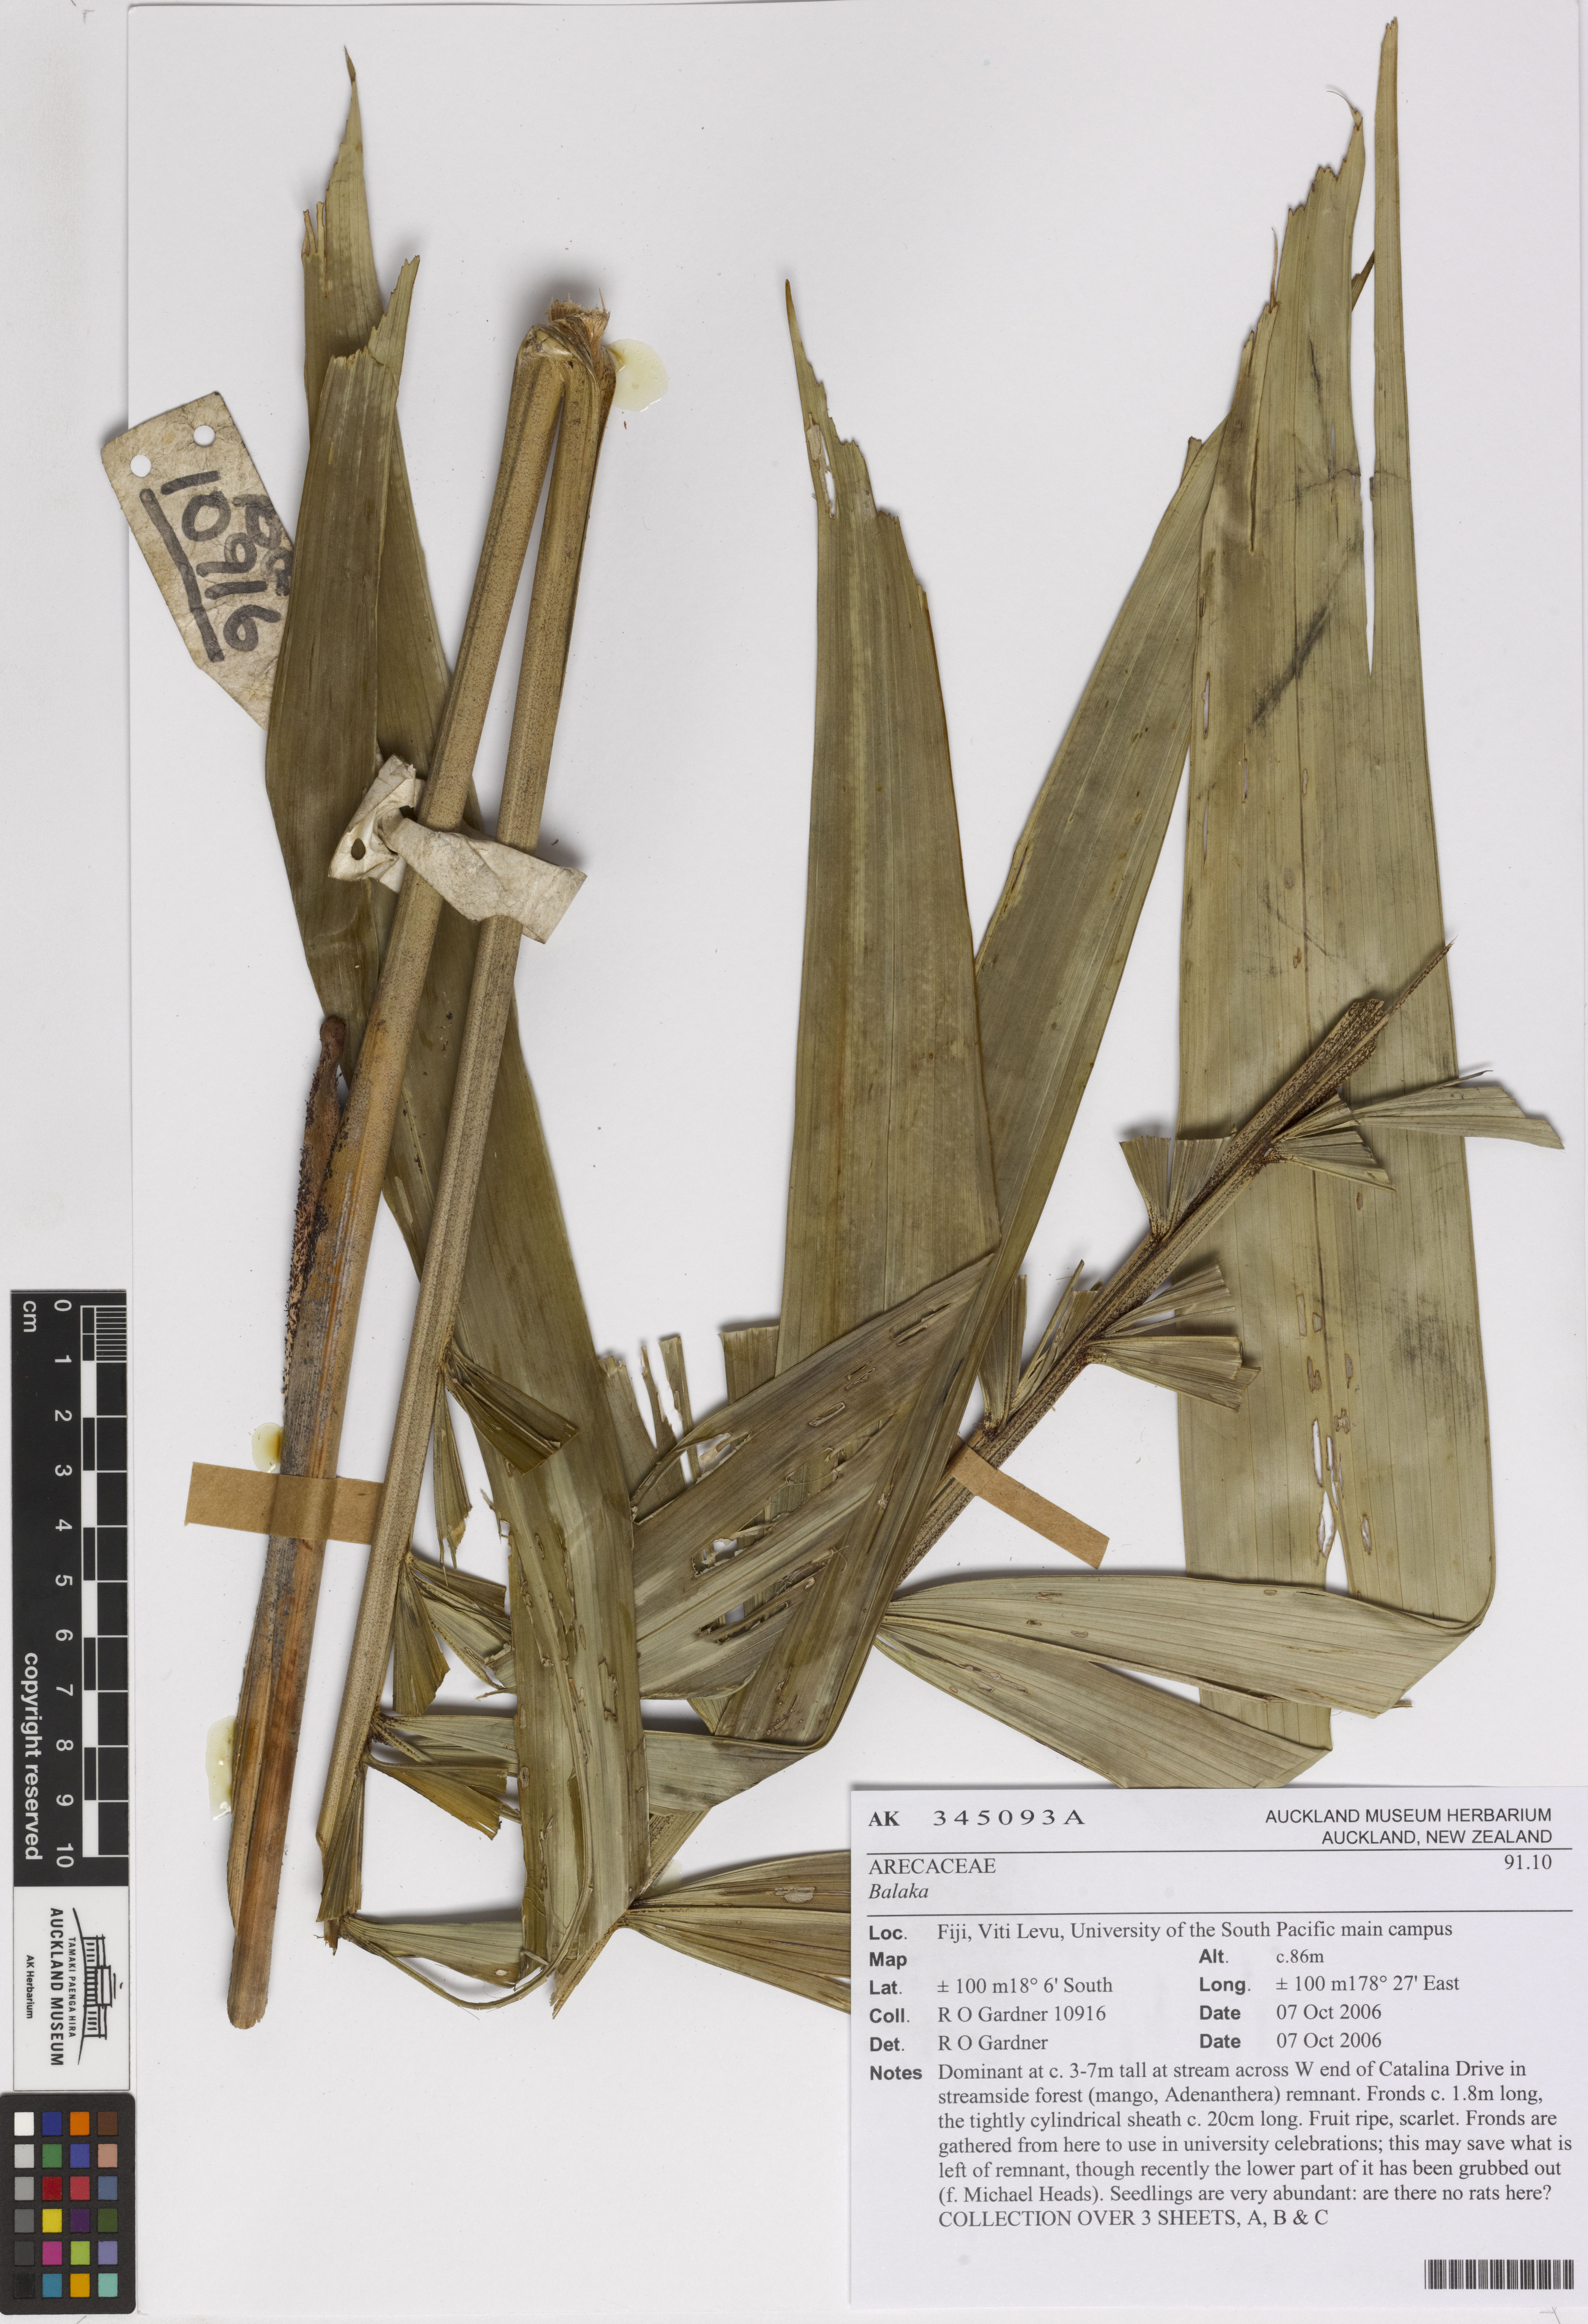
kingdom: Plantae
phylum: Tracheophyta
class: Liliopsida
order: Arecales
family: Arecaceae
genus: Balaka
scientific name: Balaka
